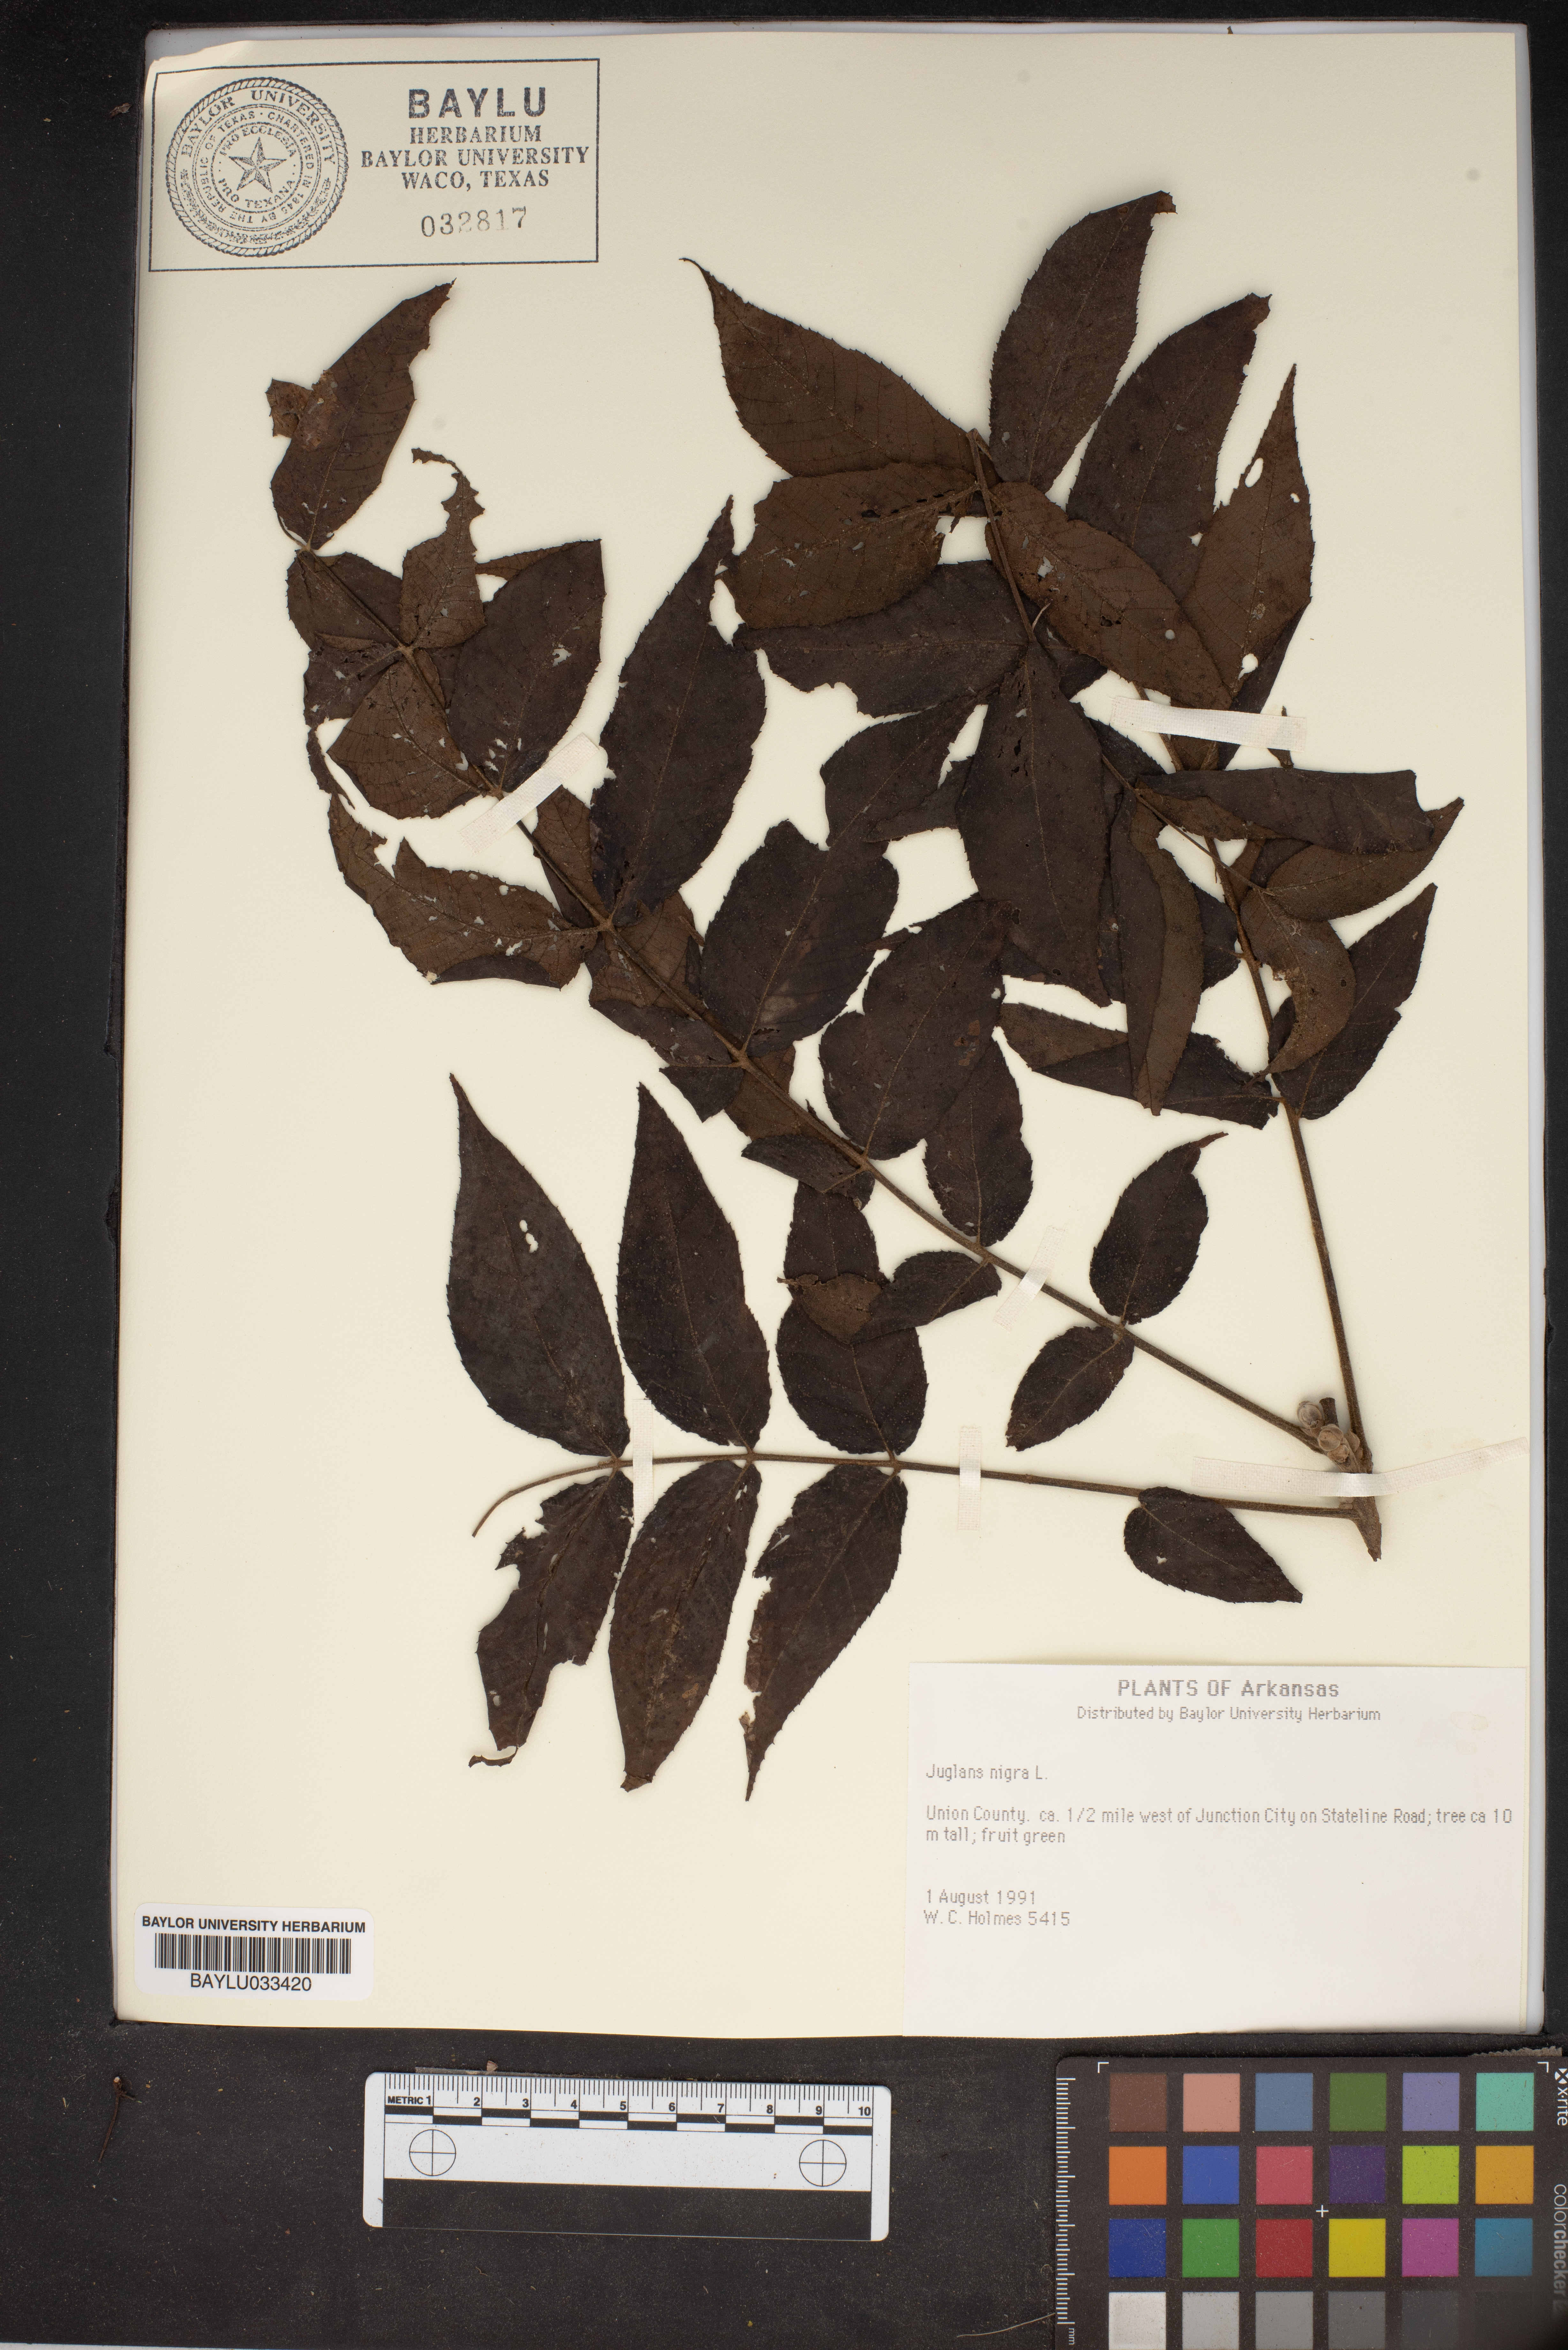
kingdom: Plantae
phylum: Tracheophyta
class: Magnoliopsida
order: Fagales
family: Juglandaceae
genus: Juglans
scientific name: Juglans nigra
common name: Black walnut
